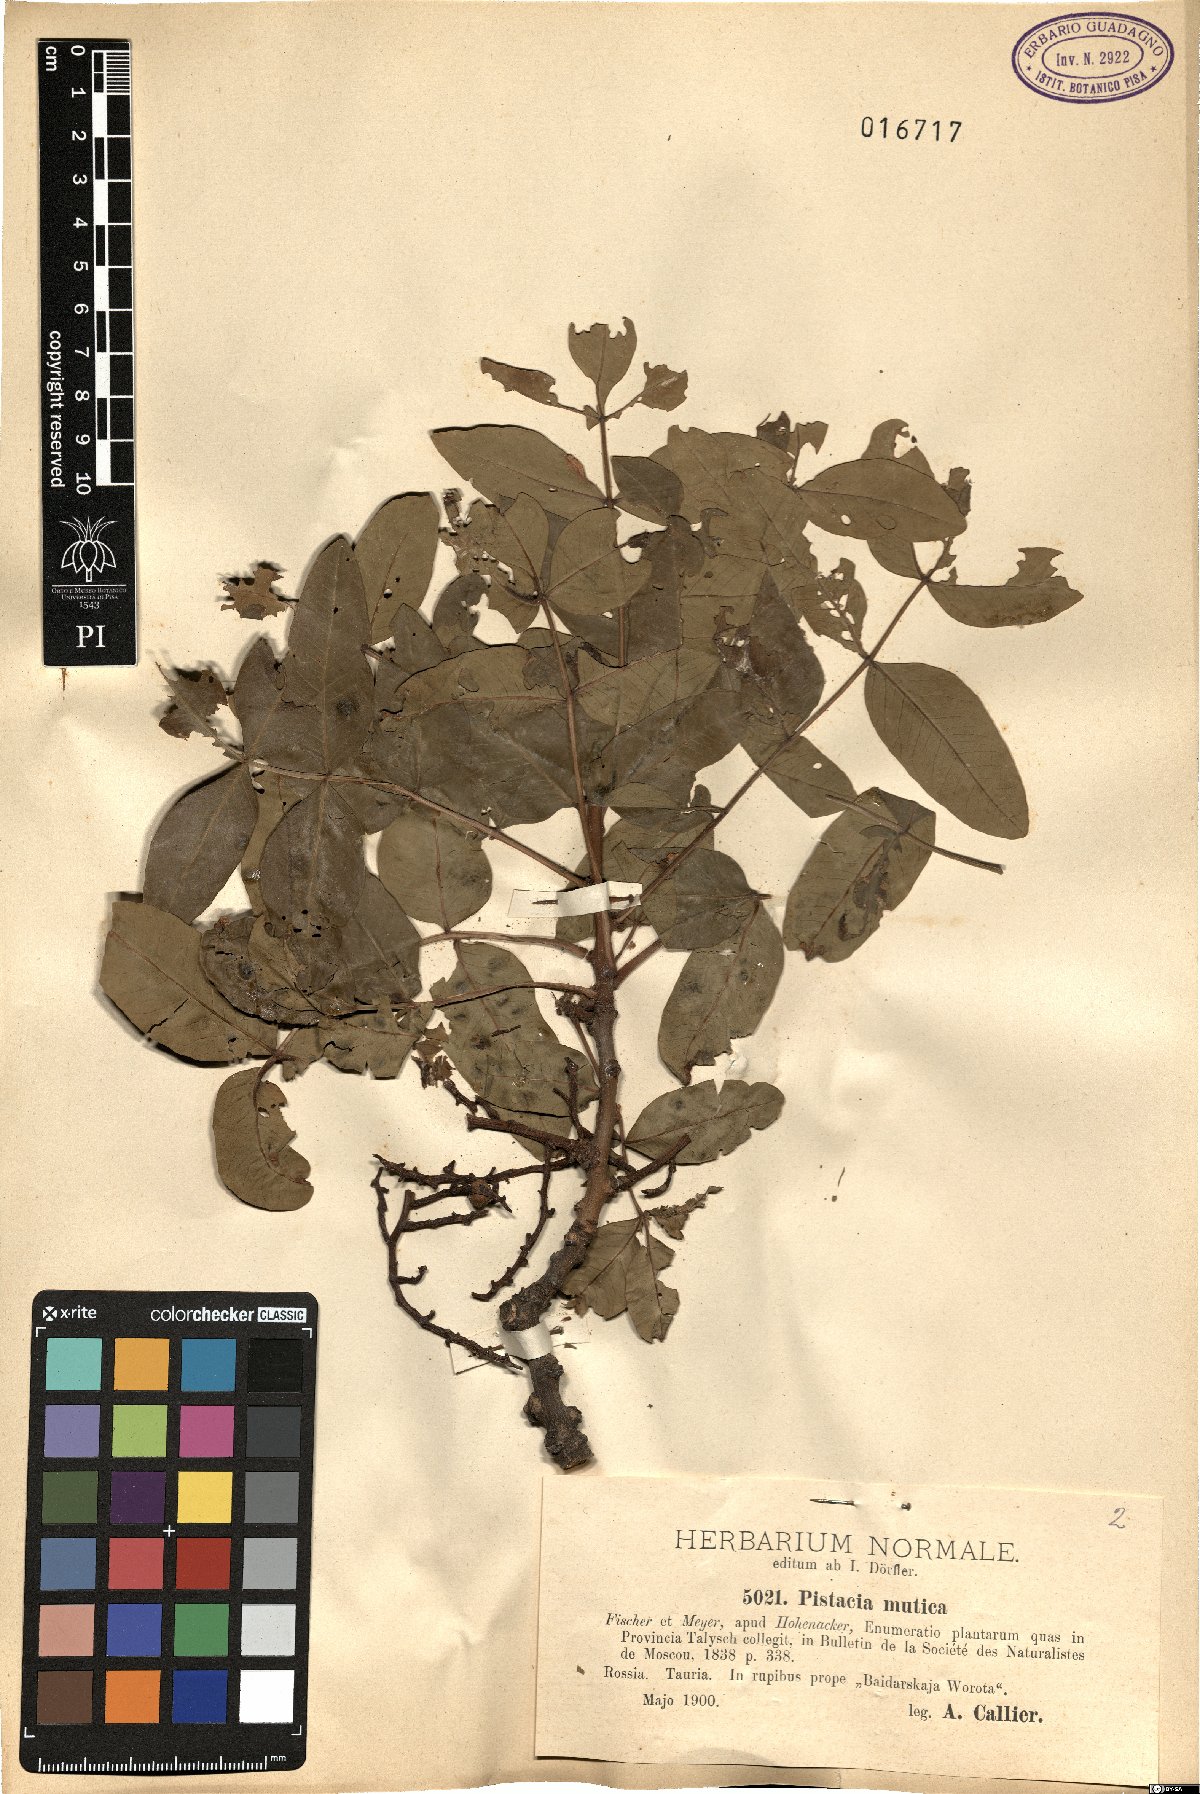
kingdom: Plantae
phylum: Tracheophyta
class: Magnoliopsida
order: Sapindales
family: Anacardiaceae
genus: Pistacia
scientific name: Pistacia atlantica
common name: Mt. atlas mastic tree
